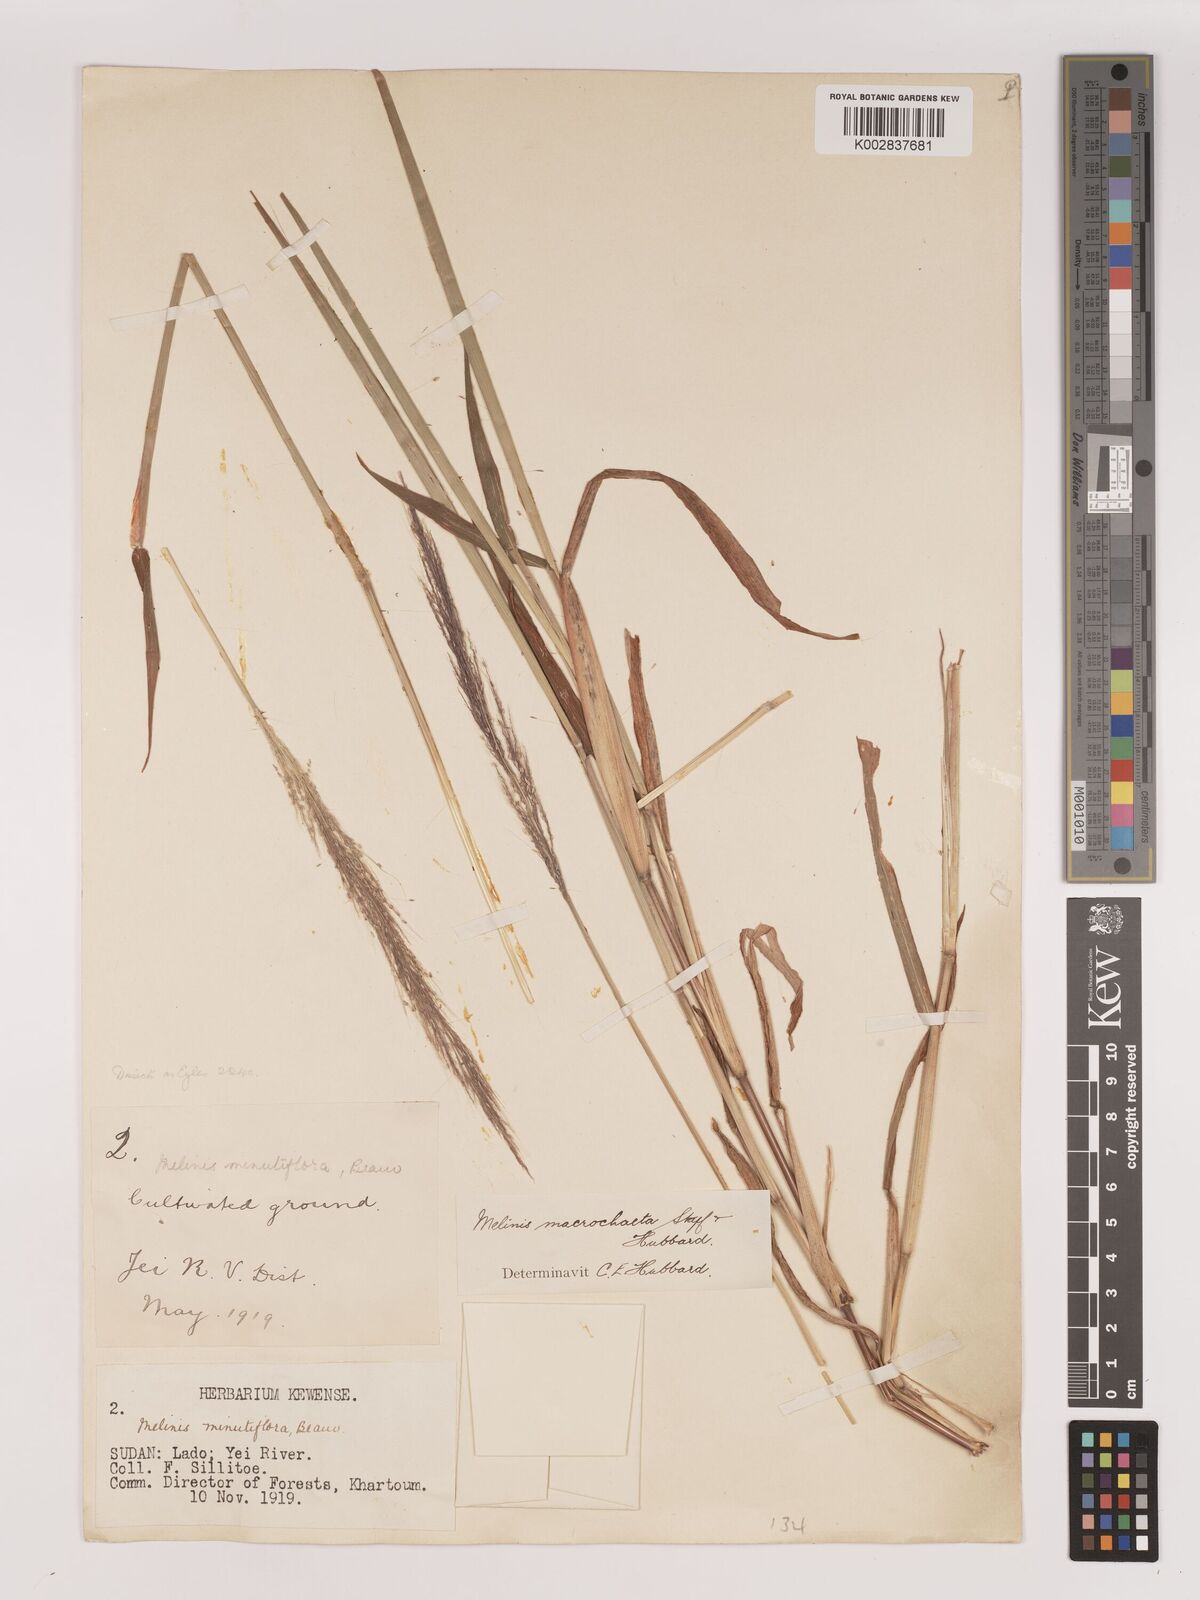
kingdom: Plantae
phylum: Tracheophyta
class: Liliopsida
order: Poales
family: Poaceae
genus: Melinis
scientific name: Melinis macrochaeta
